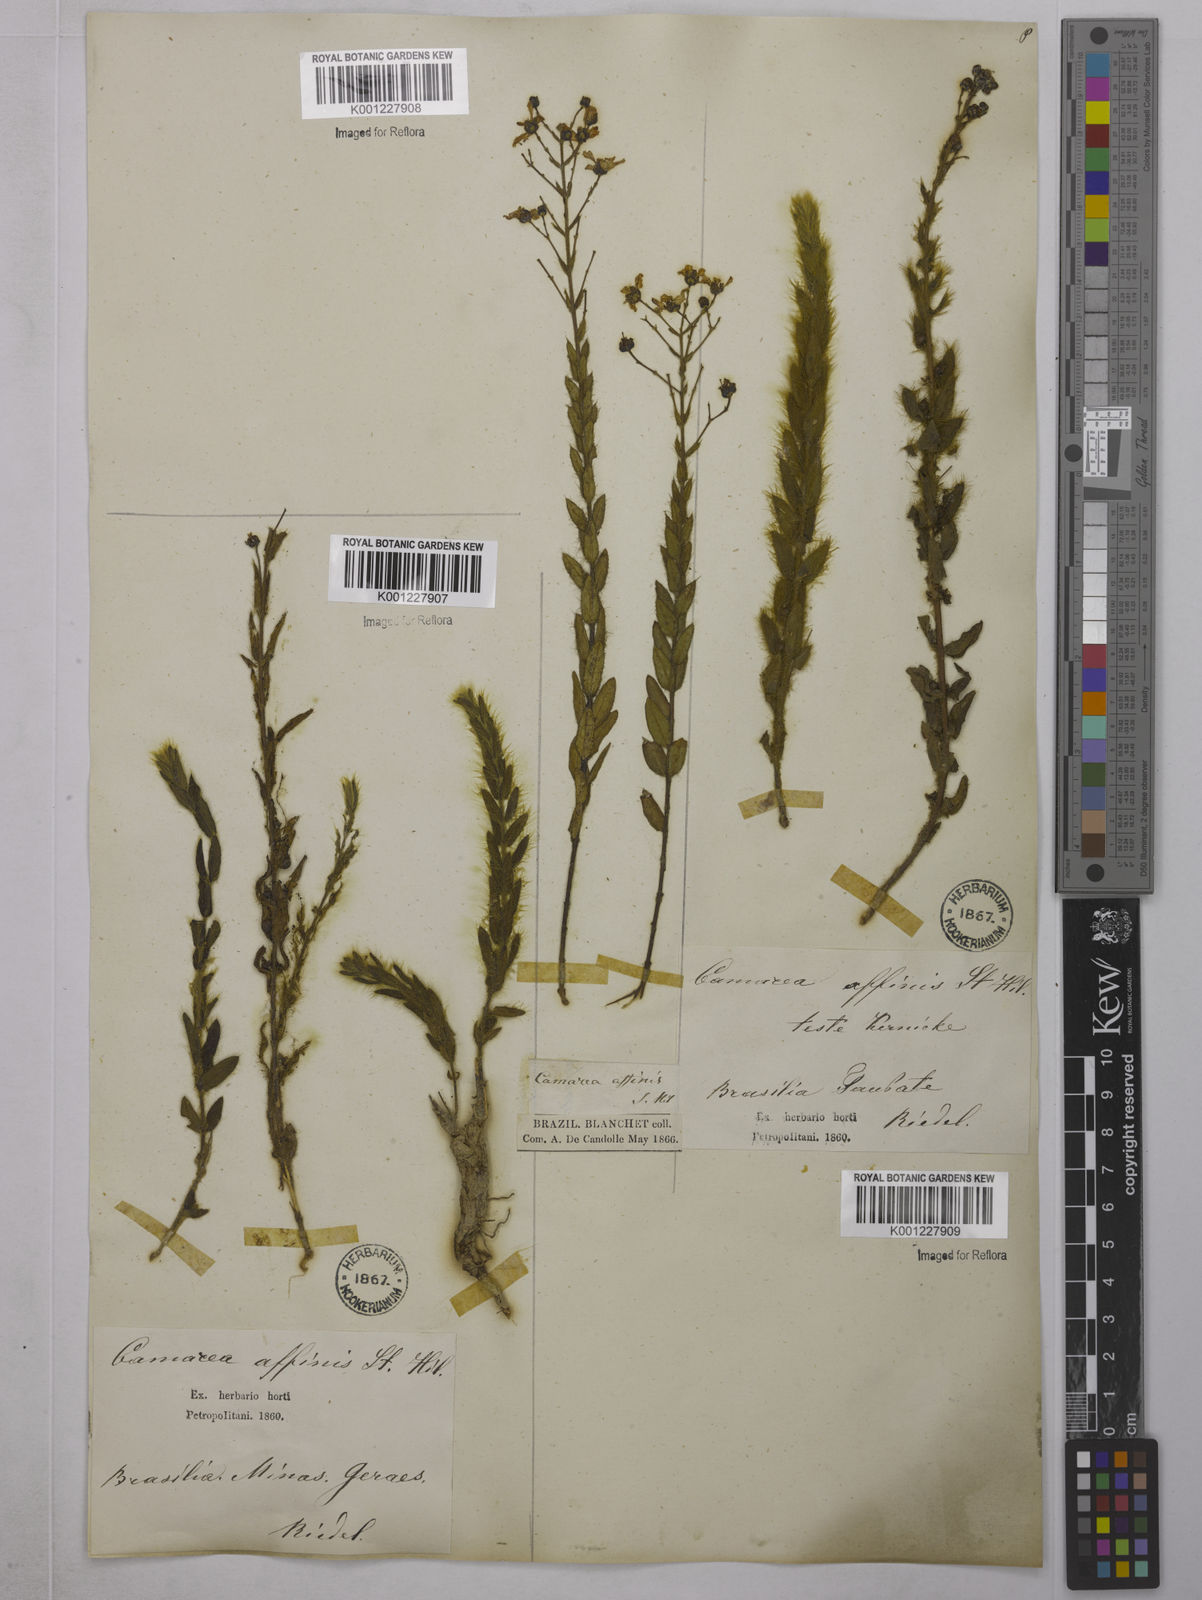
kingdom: Plantae
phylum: Tracheophyta
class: Magnoliopsida
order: Malpighiales
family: Malpighiaceae
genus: Camarea
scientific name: Camarea affinis
